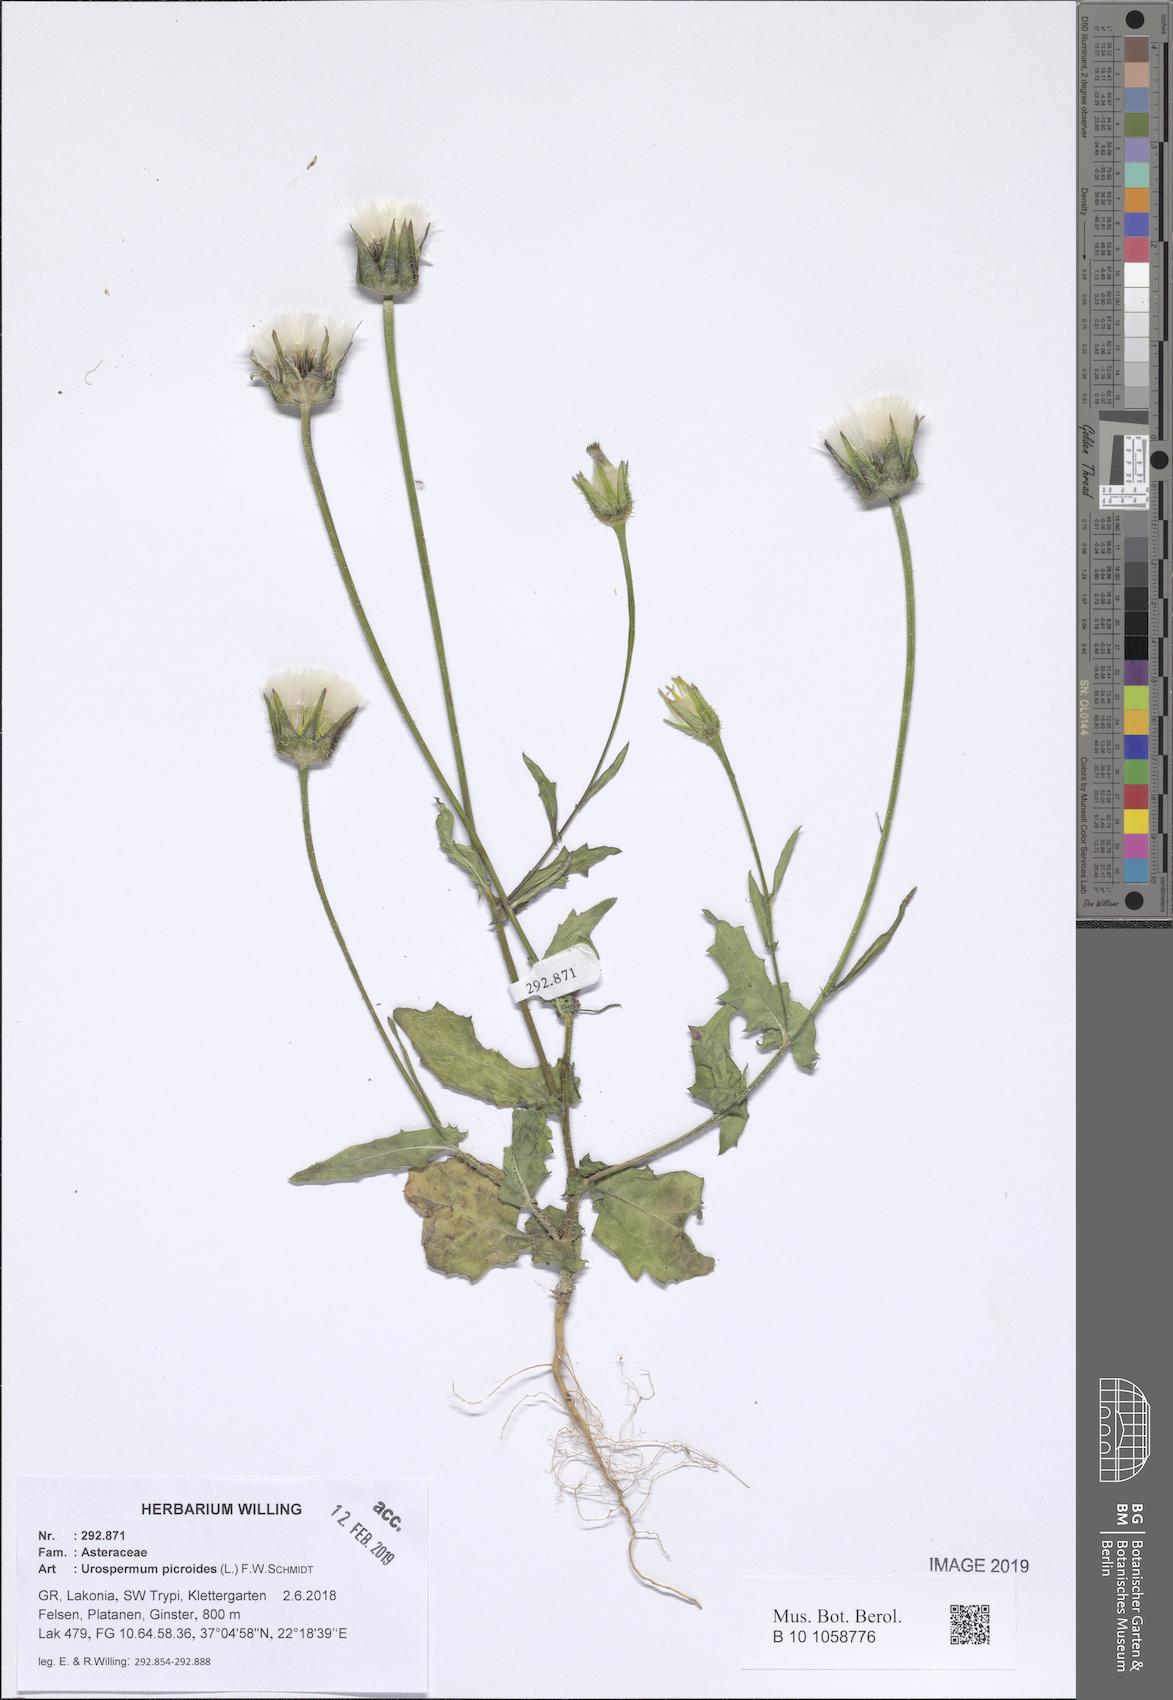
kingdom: Plantae
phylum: Tracheophyta
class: Magnoliopsida
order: Asterales
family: Asteraceae
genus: Urospermum
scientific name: Urospermum picroides
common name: False hawkbit
